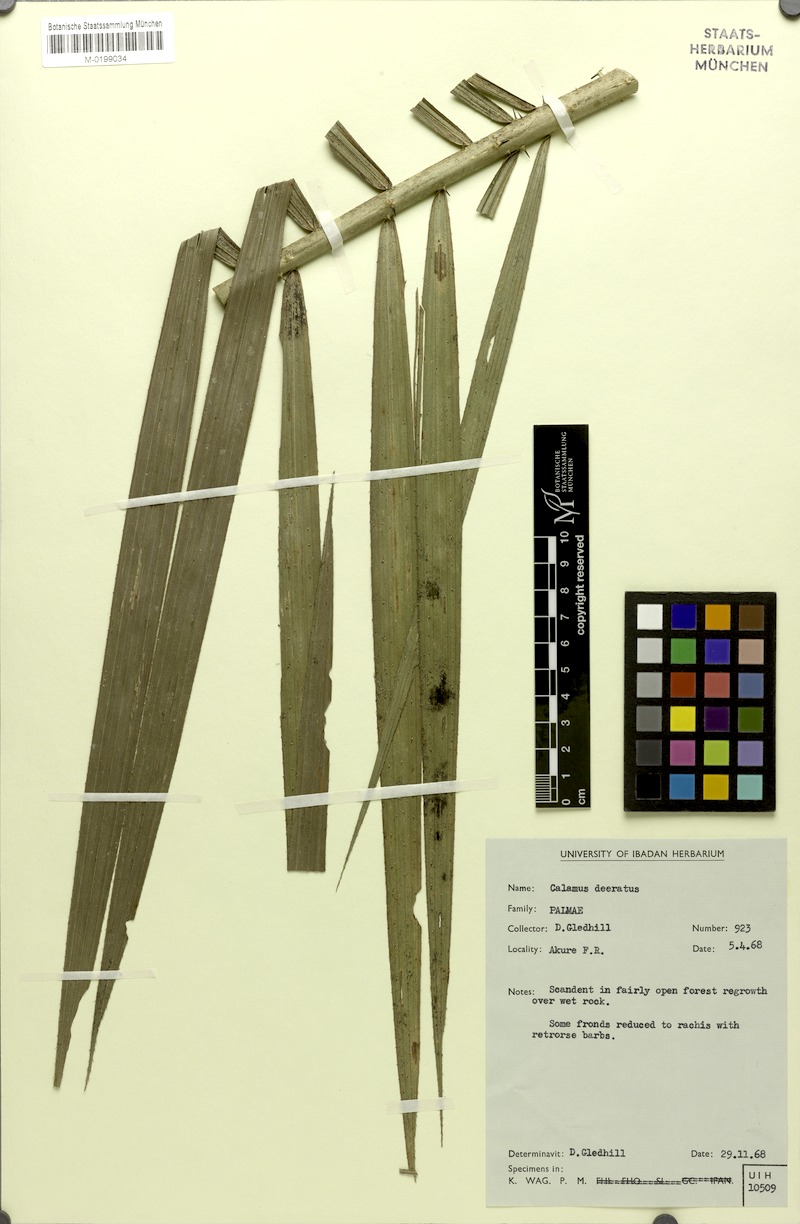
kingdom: Plantae
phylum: Tracheophyta
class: Liliopsida
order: Arecales
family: Arecaceae
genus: Calamus
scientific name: Calamus deerratus
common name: Rattan
